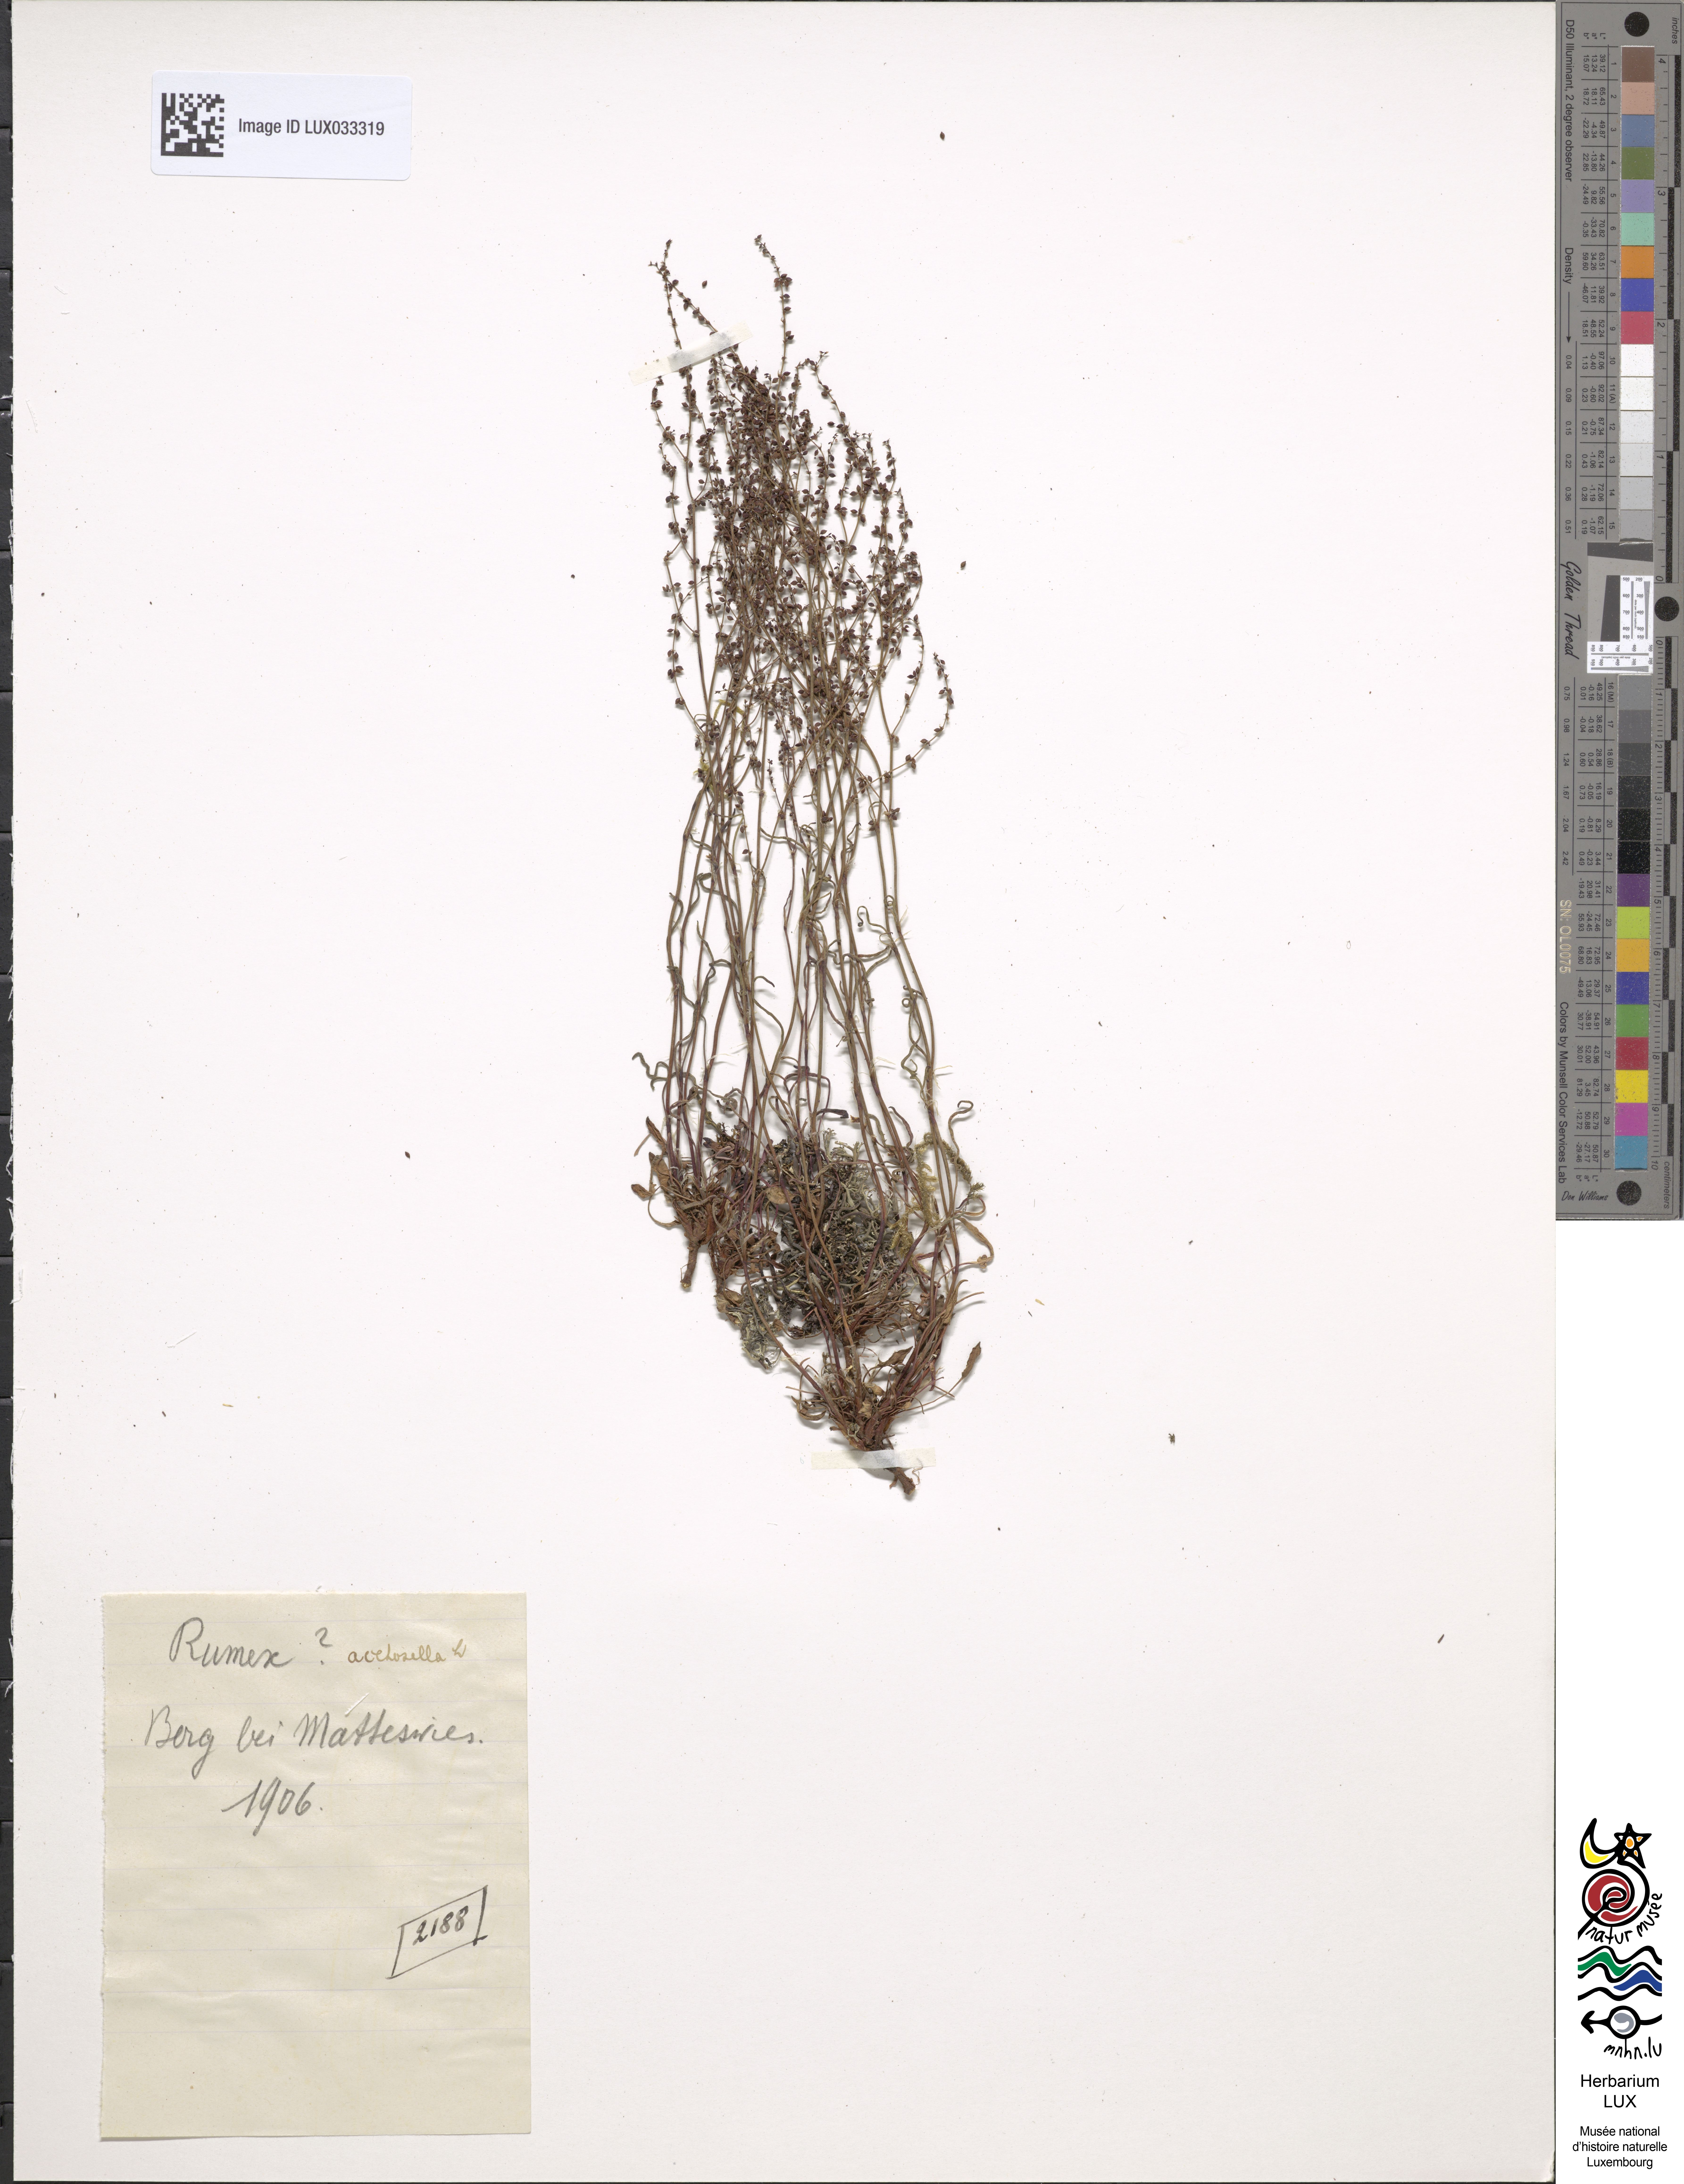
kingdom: Plantae
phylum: Tracheophyta
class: Magnoliopsida
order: Caryophyllales
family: Polygonaceae
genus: Rumex
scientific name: Rumex acetosella
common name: Common sheep sorrel
